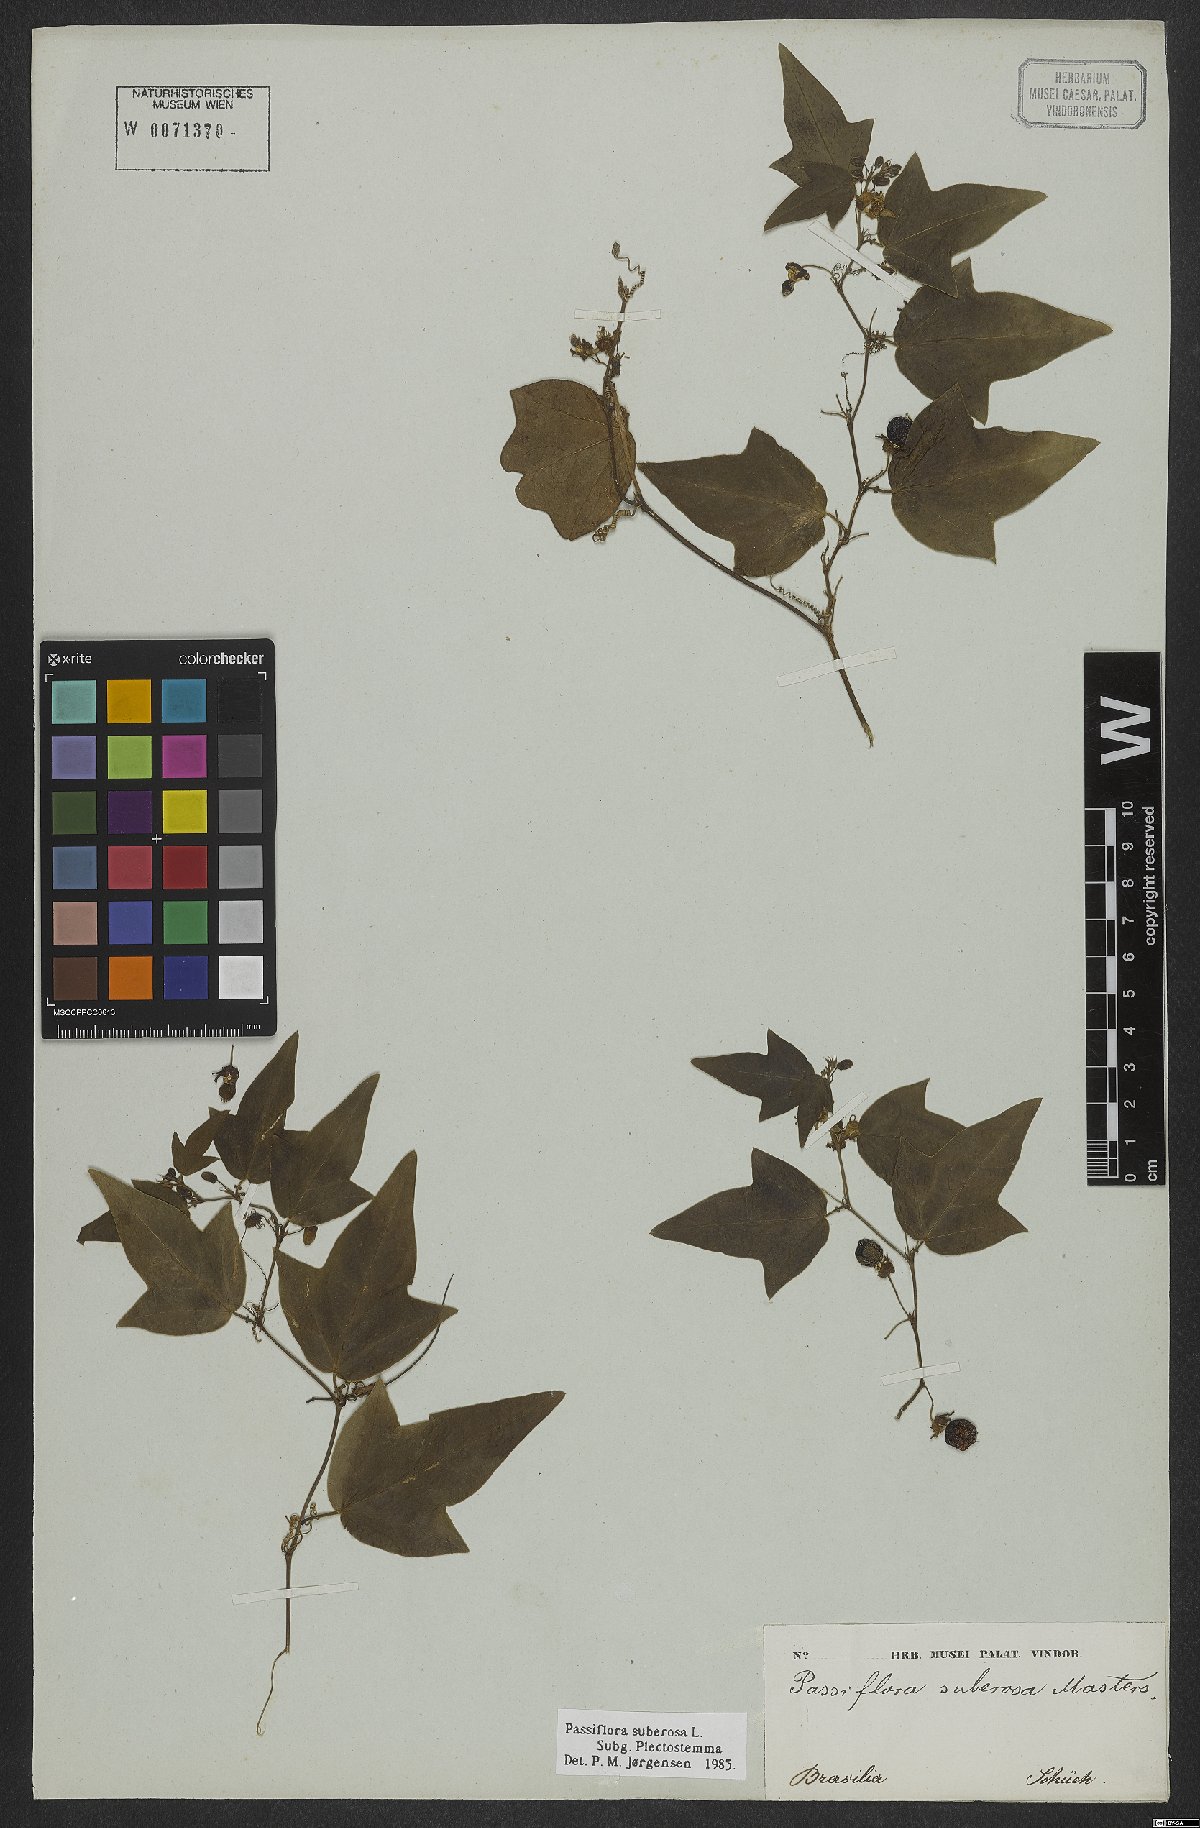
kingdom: Plantae
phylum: Tracheophyta
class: Magnoliopsida
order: Malpighiales
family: Passifloraceae
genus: Passiflora
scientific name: Passiflora suberosa
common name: Wild passionfruit
